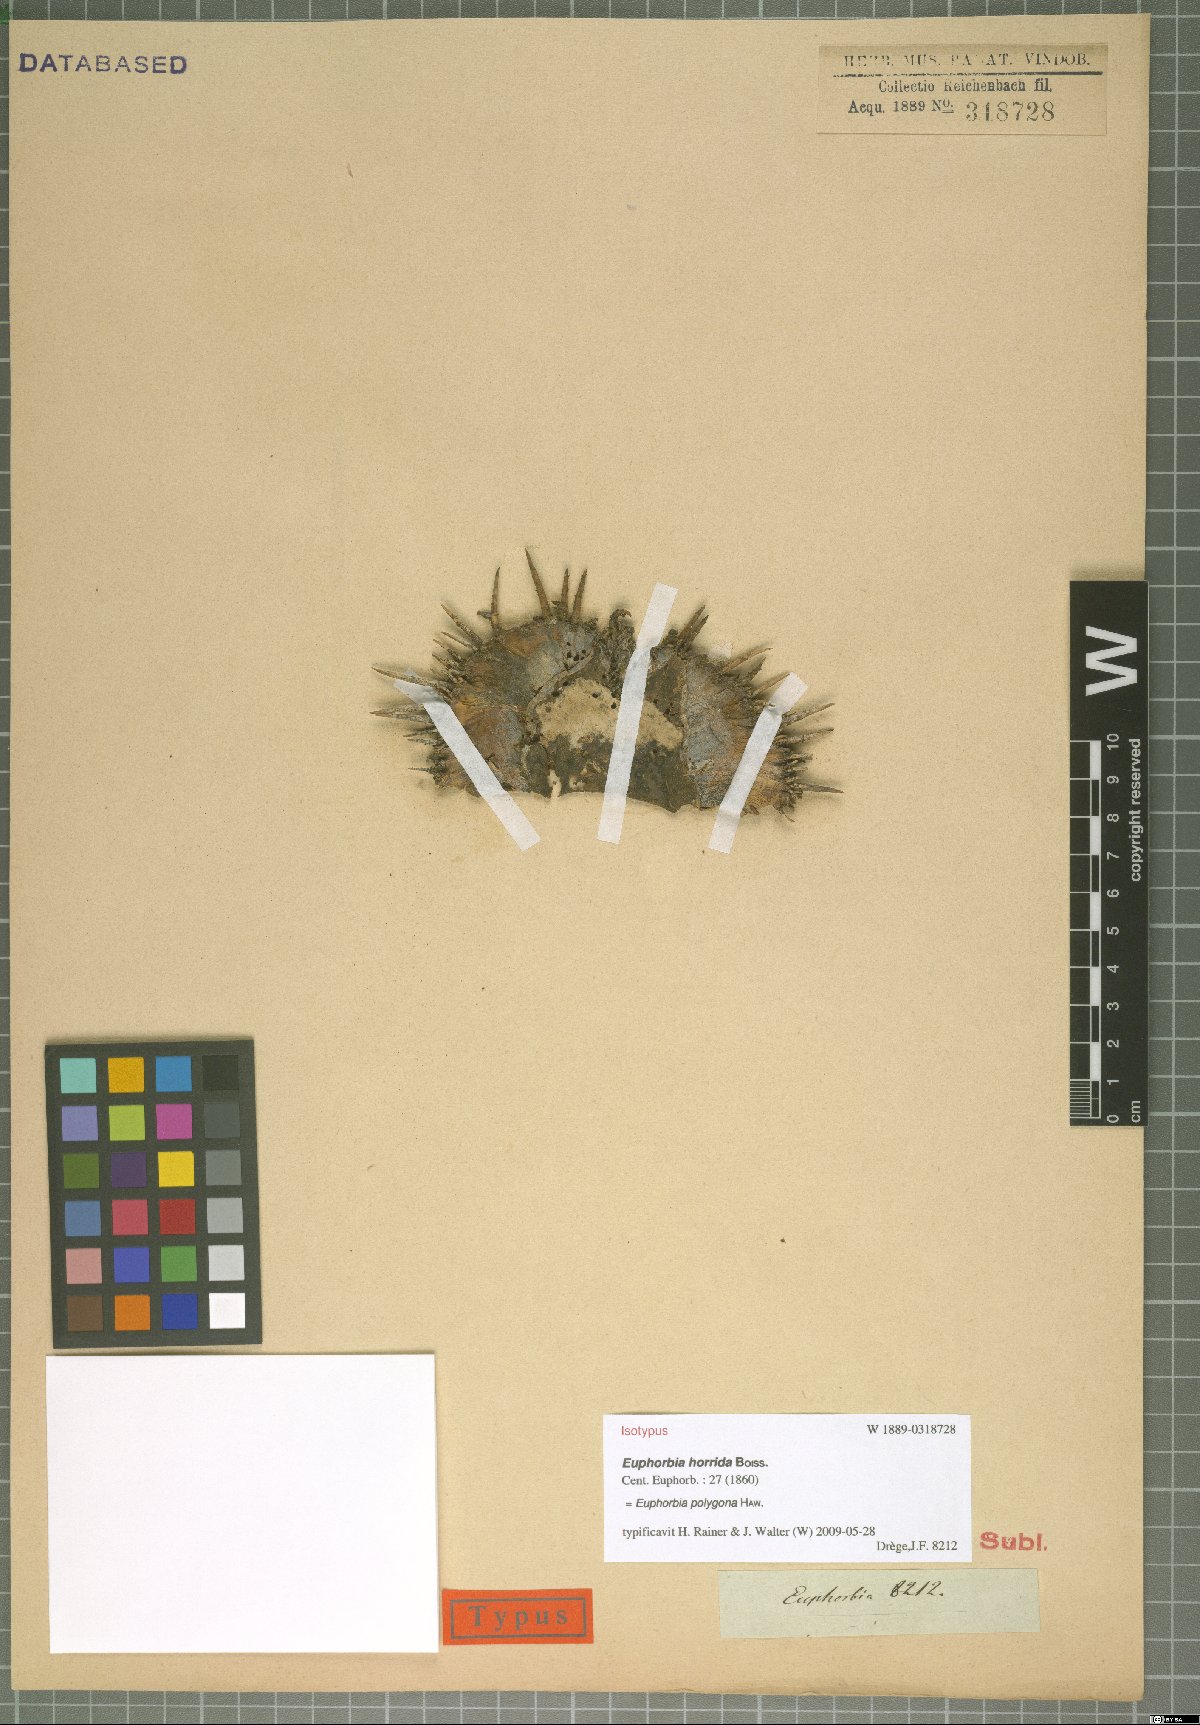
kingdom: Plantae
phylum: Tracheophyta
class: Magnoliopsida
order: Malpighiales
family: Euphorbiaceae
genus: Euphorbia
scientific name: Euphorbia polygona
